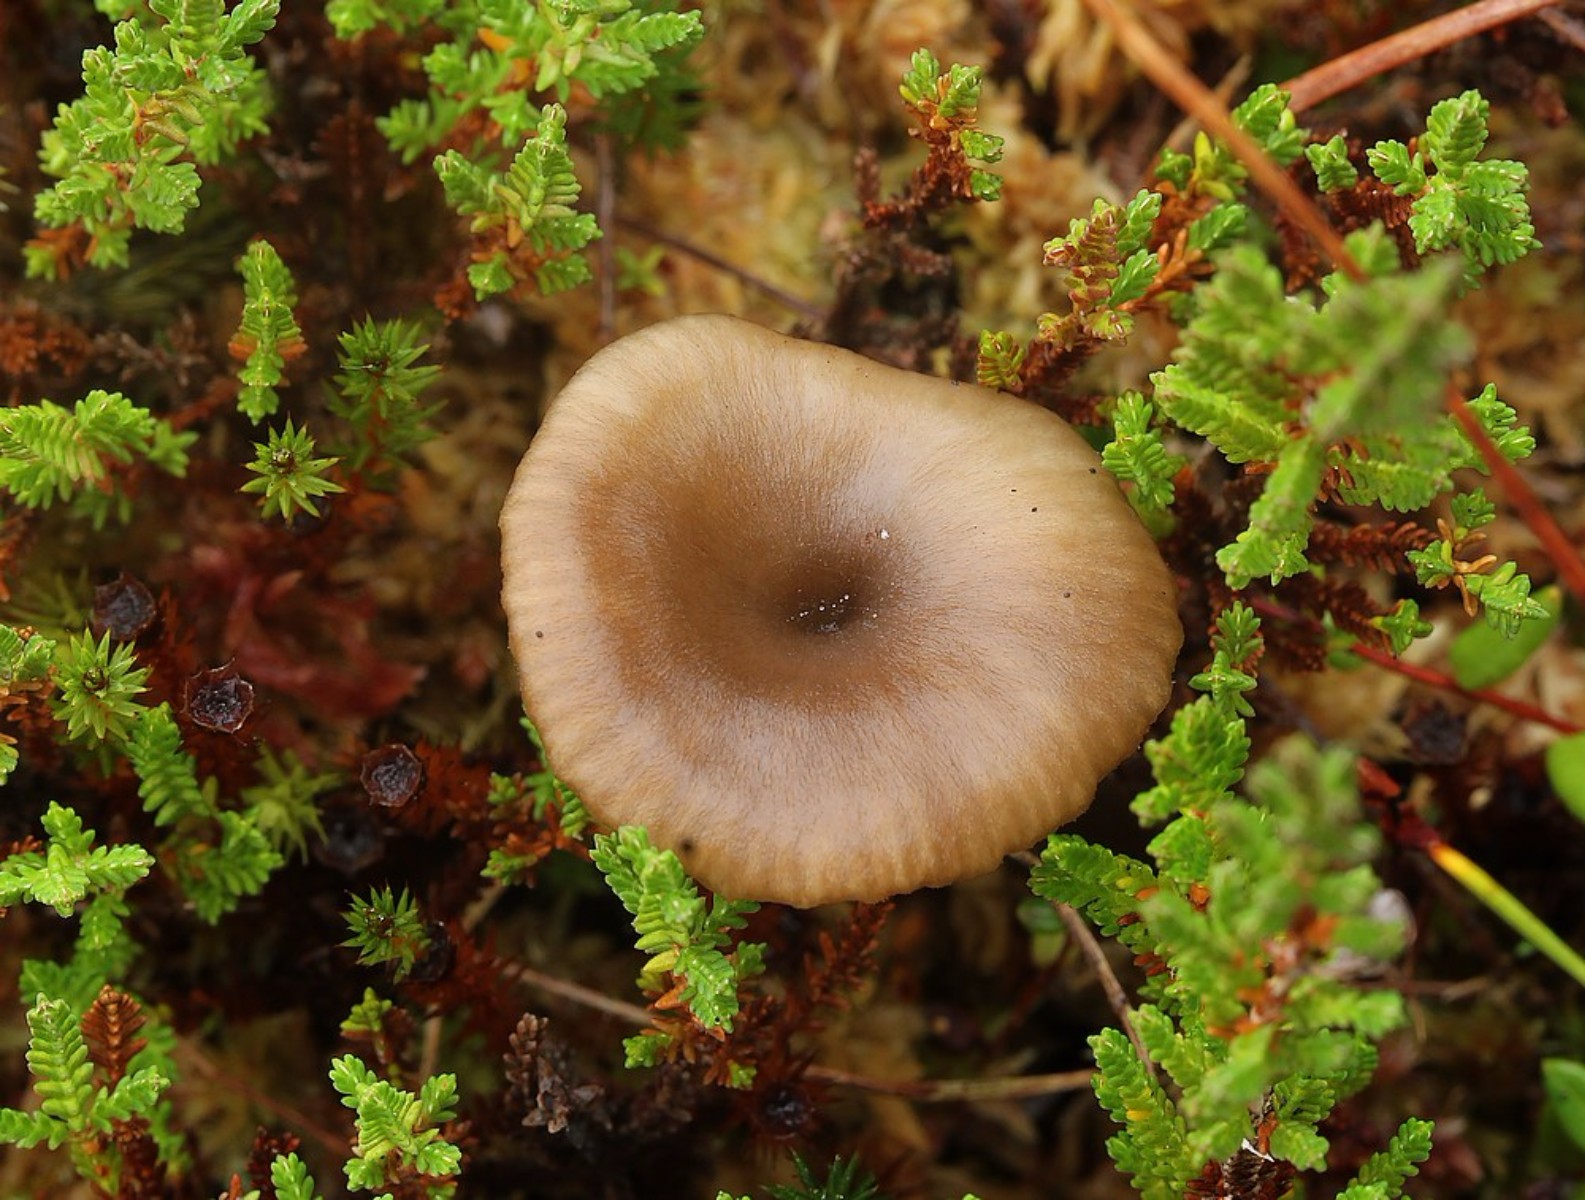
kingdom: Fungi
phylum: Basidiomycota
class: Agaricomycetes
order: Agaricales
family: Hygrophoraceae
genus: Arrhenia
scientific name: Arrhenia telmatiaea
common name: glat fontænehat
